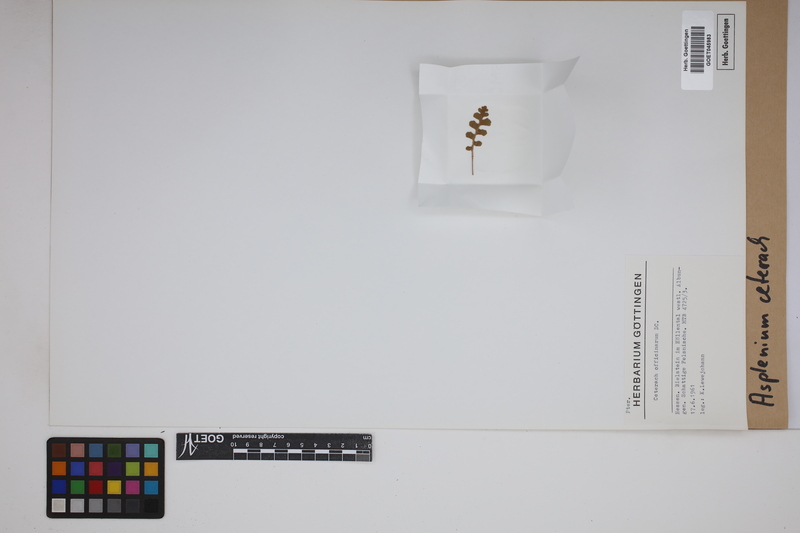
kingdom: Plantae
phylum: Tracheophyta
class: Polypodiopsida
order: Polypodiales
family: Aspleniaceae
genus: Asplenium
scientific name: Asplenium ceterach
